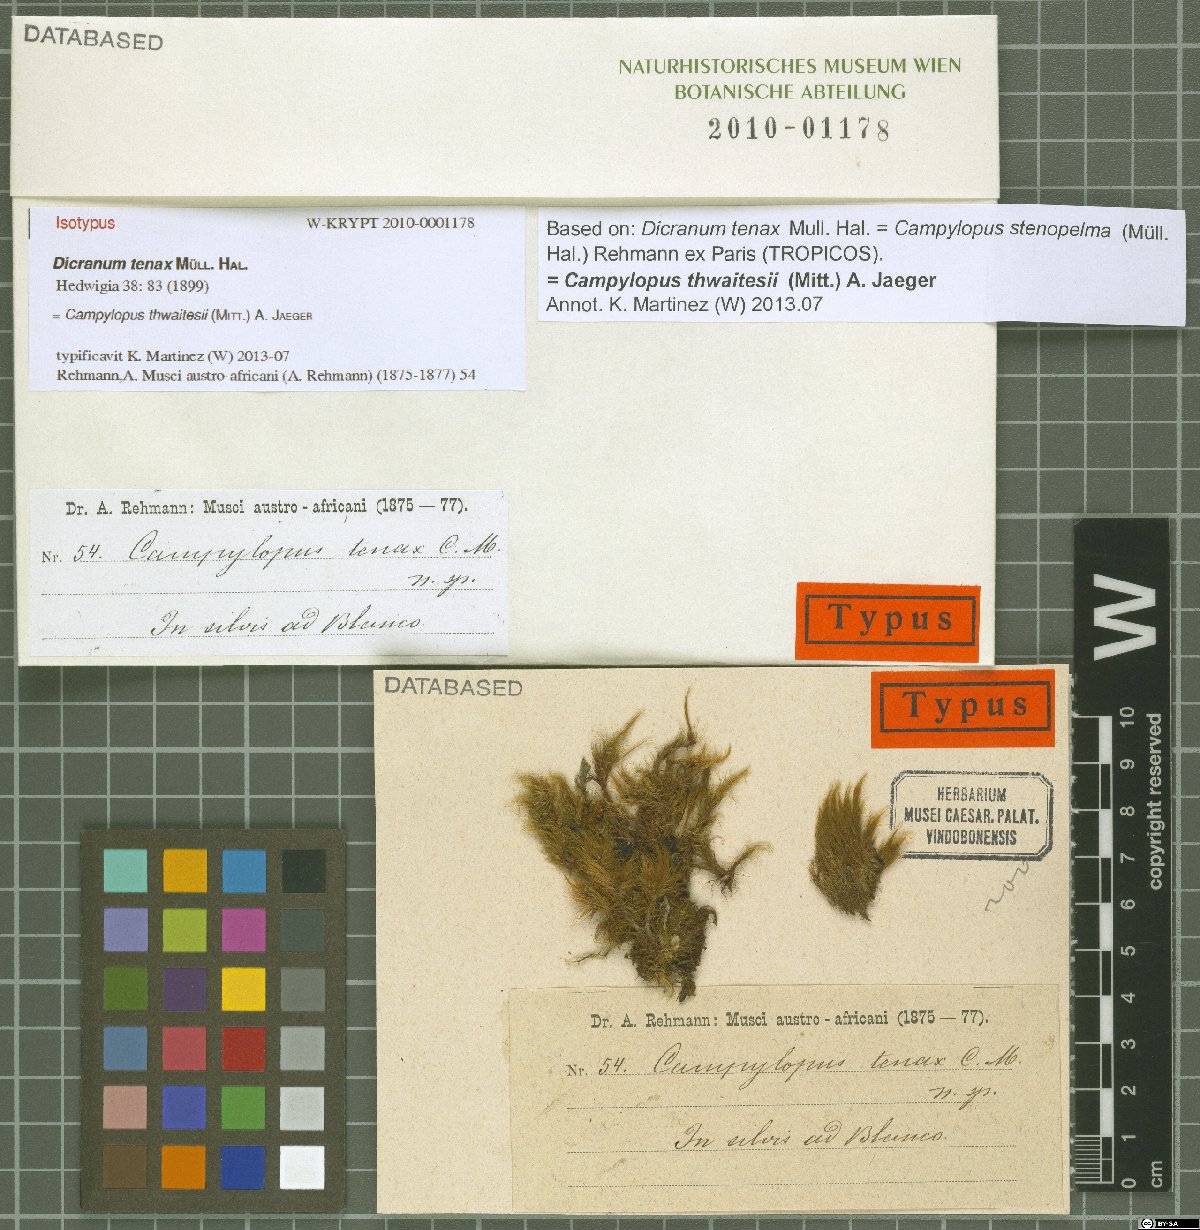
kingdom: Plantae
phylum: Bryophyta
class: Bryopsida
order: Dicranales
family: Leucobryaceae
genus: Campylopus
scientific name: Campylopus thwaitesii
